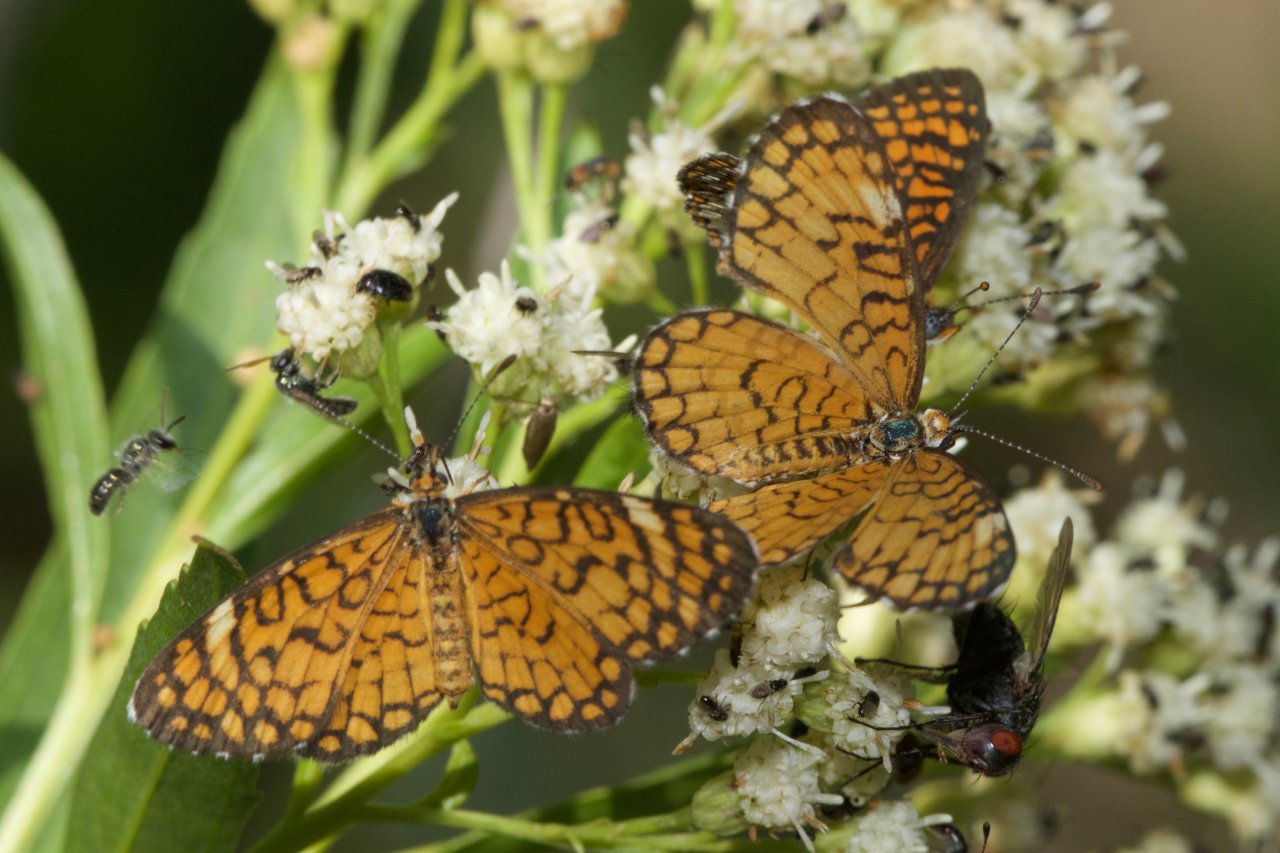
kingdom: Animalia
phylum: Arthropoda
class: Insecta
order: Lepidoptera
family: Nymphalidae
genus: Dymasia
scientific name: Dymasia dymas
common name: Tiny Checkerspot
